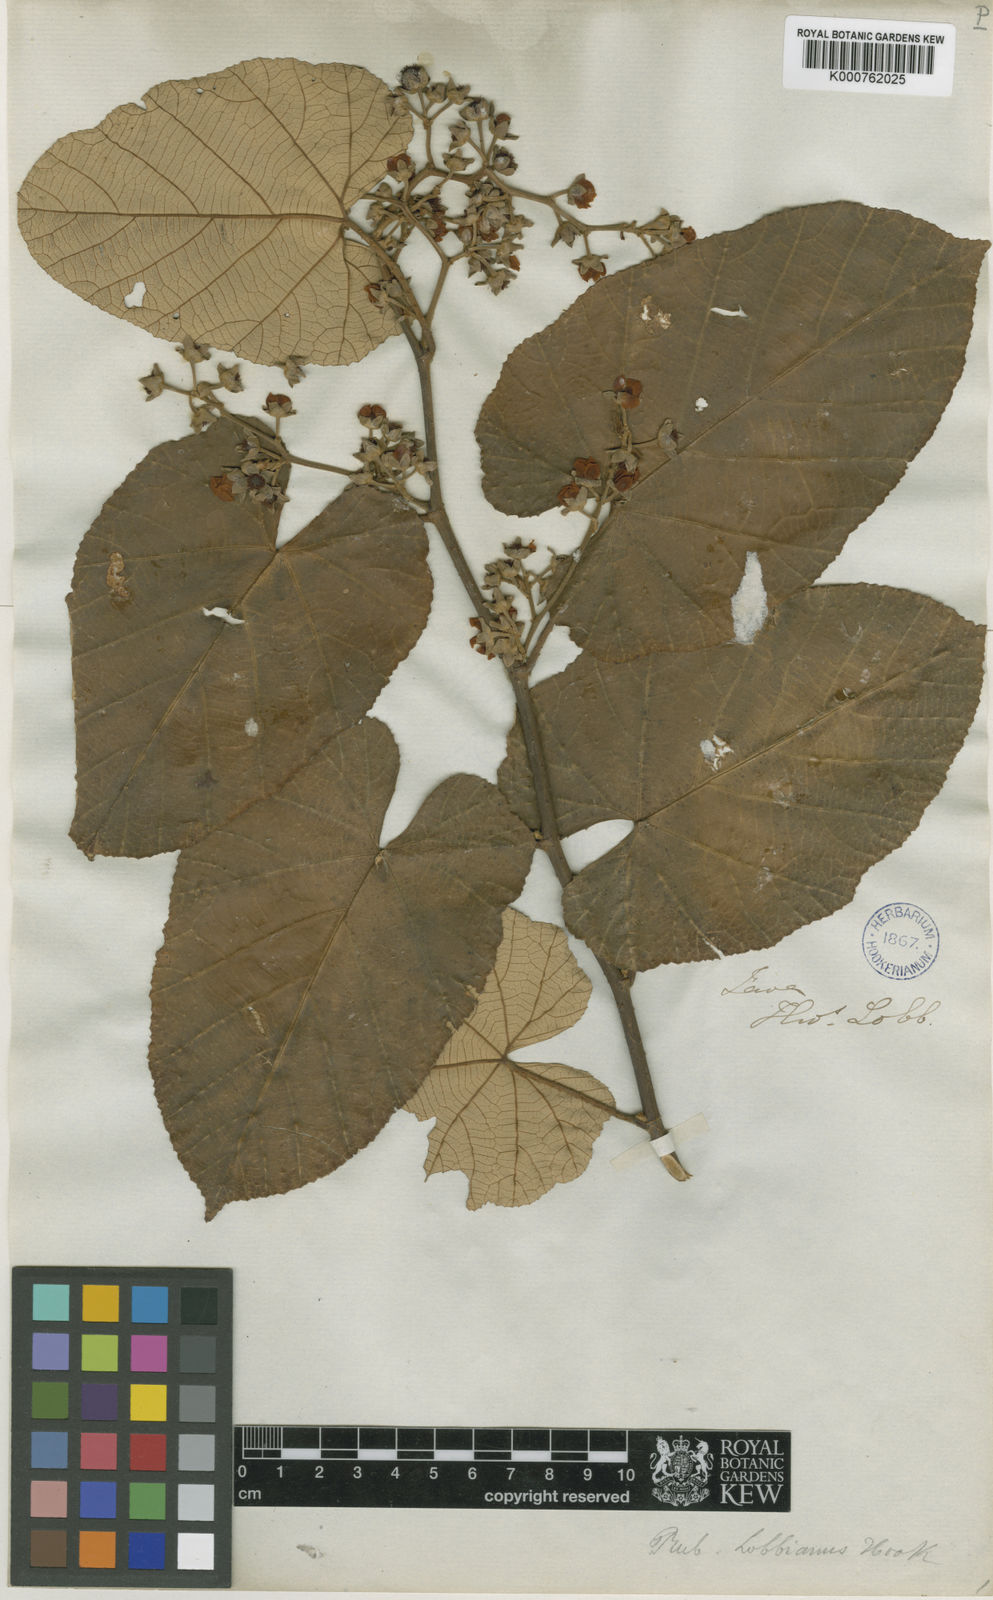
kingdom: Plantae
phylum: Tracheophyta
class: Magnoliopsida
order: Rosales
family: Rosaceae
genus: Rubus
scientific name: Rubus elongatus
